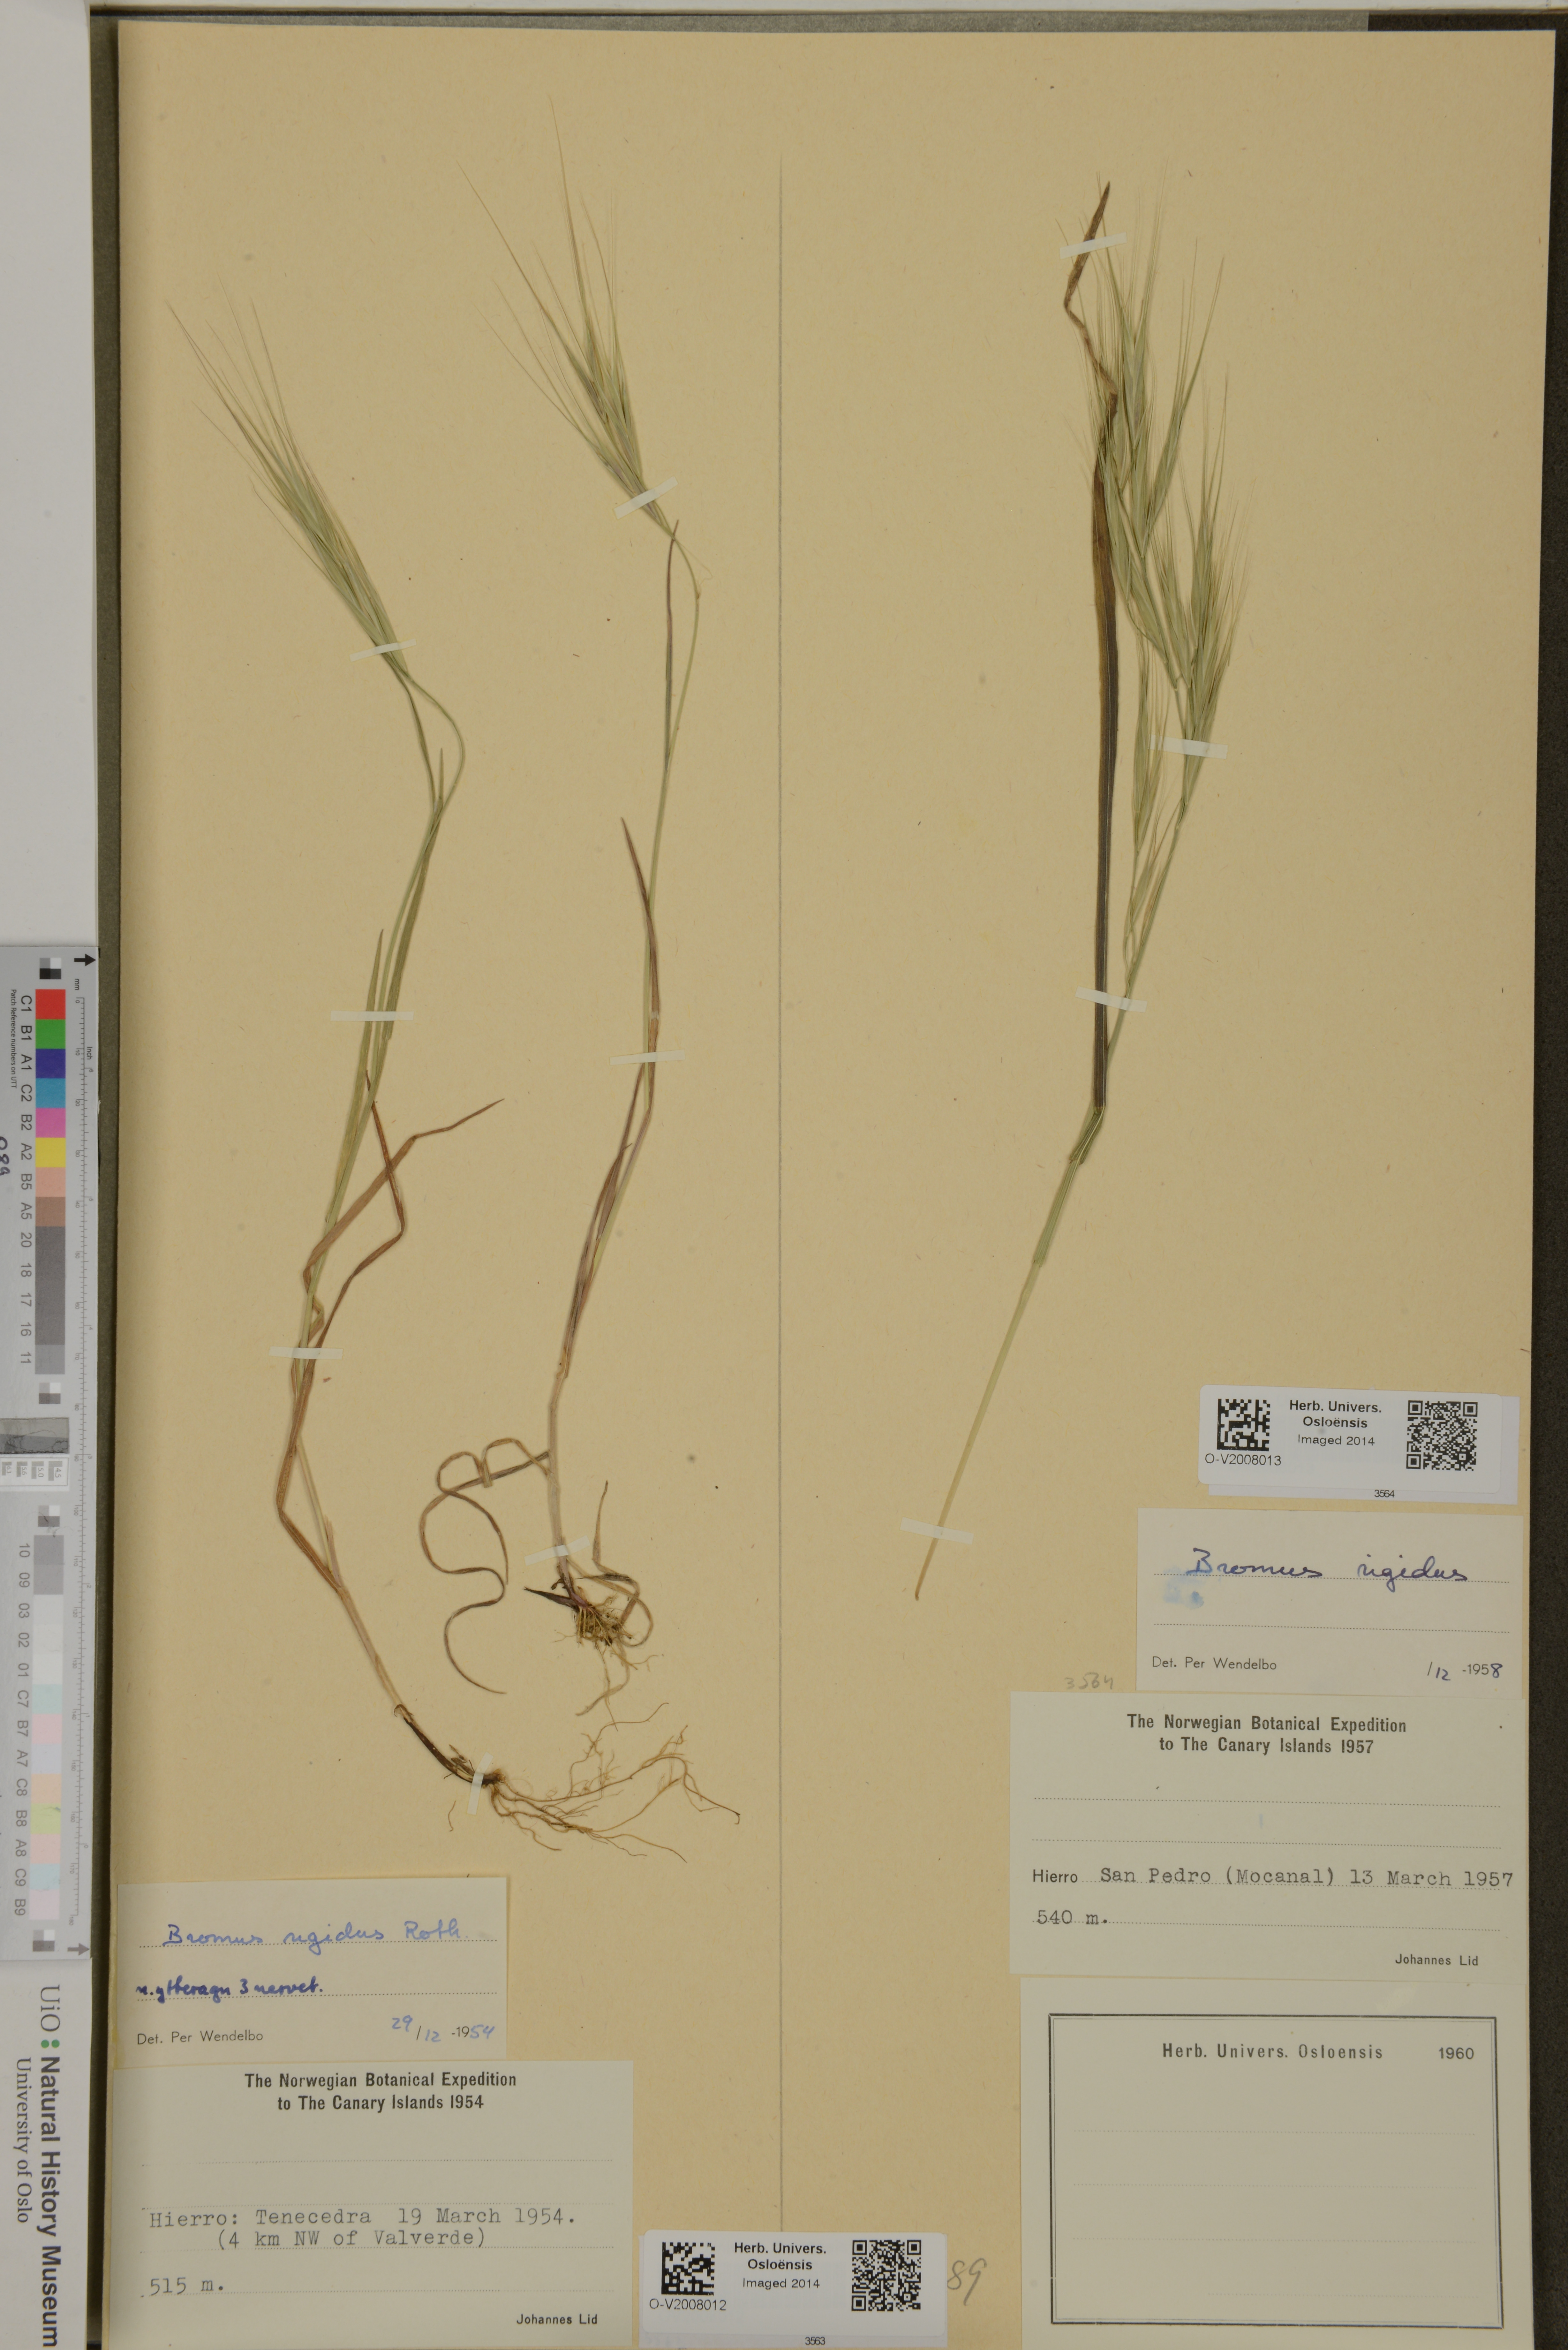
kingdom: Plantae
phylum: Tracheophyta
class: Liliopsida
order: Poales
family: Poaceae
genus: Bromus
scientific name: Bromus rigidus
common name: Ripgut brome
